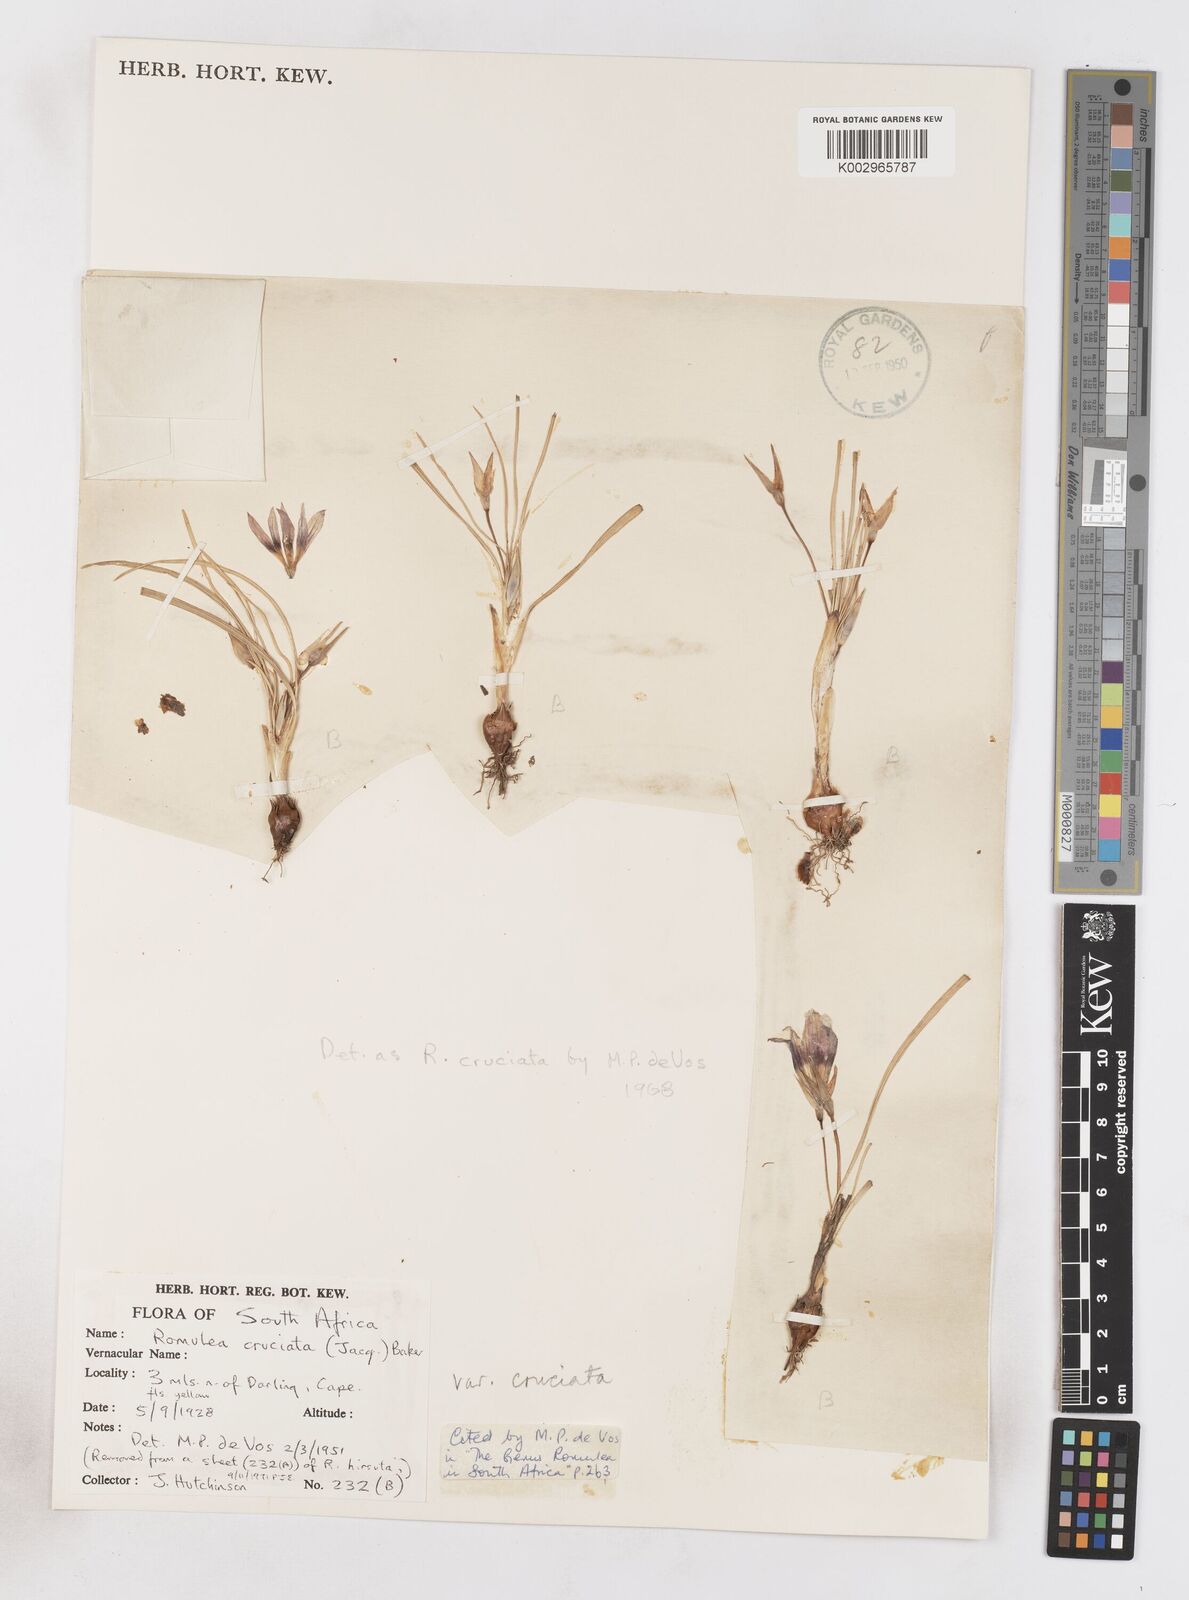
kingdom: Plantae
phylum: Tracheophyta
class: Liliopsida
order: Asparagales
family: Iridaceae
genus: Romulea
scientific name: Romulea cruciata
